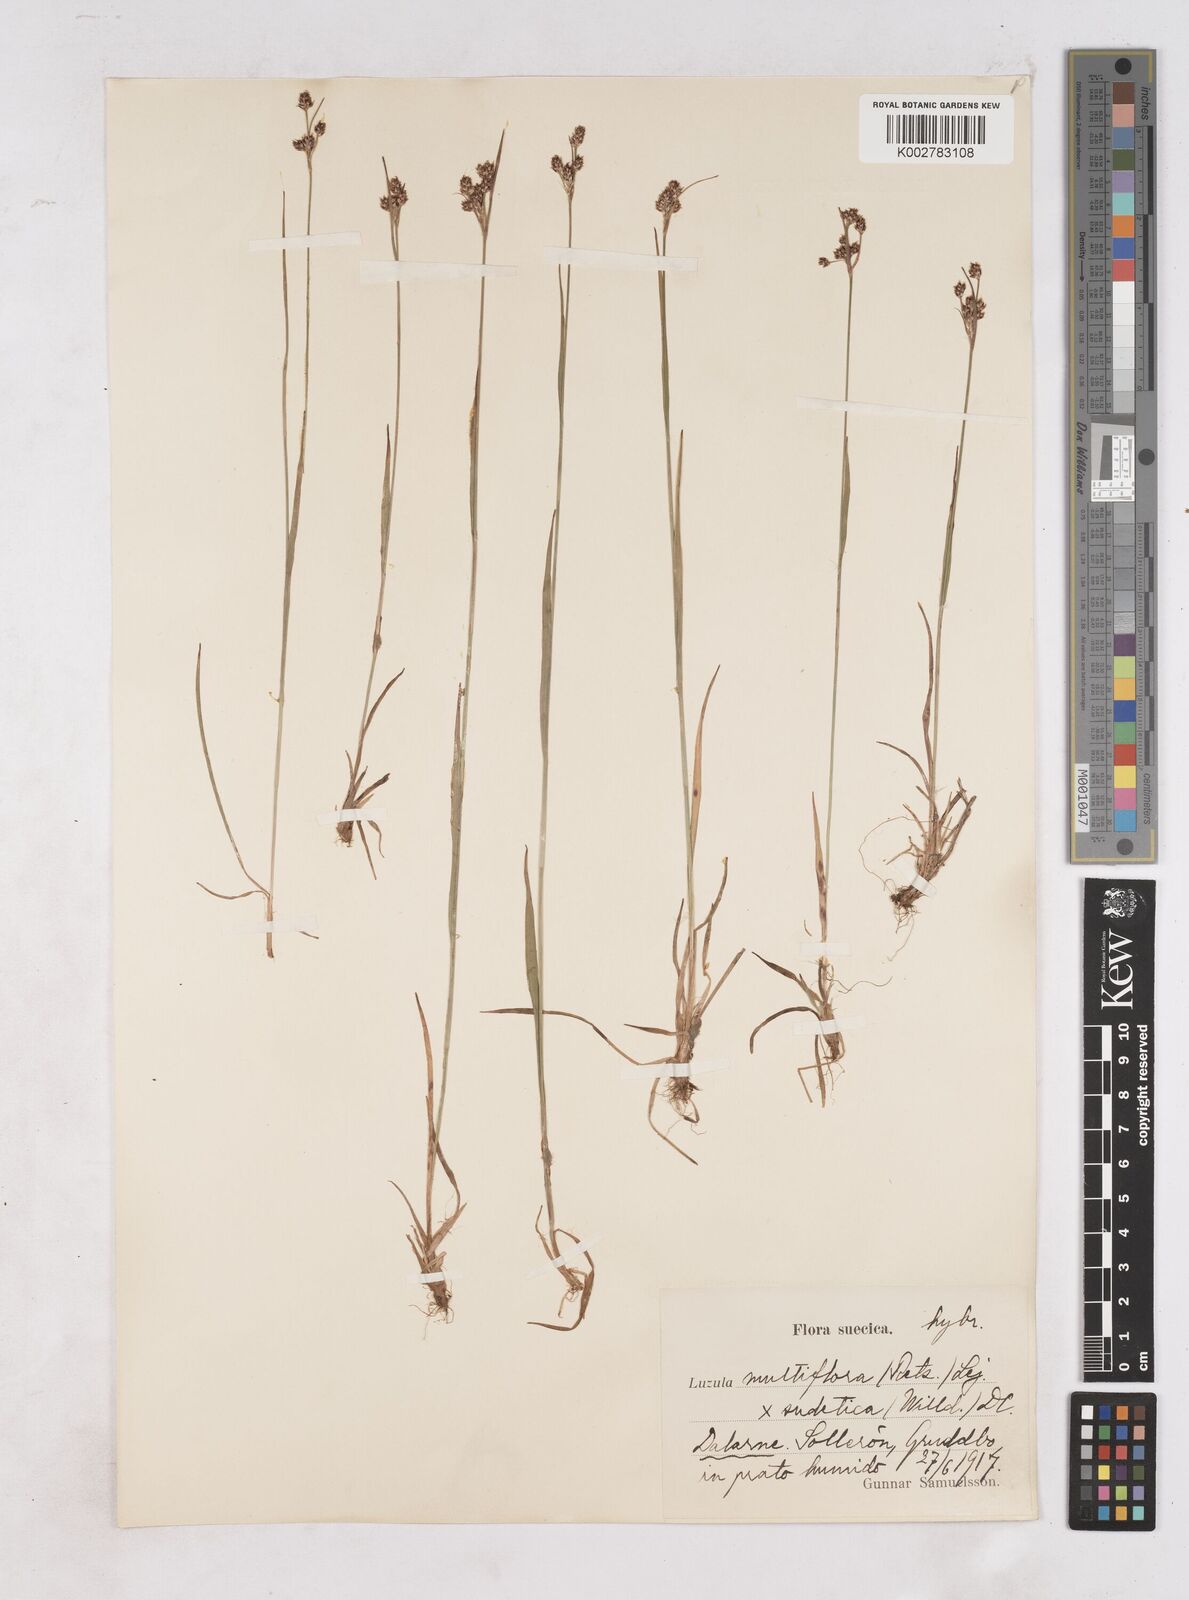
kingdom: Plantae
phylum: Tracheophyta
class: Liliopsida
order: Poales
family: Juncaceae
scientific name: Juncaceae
